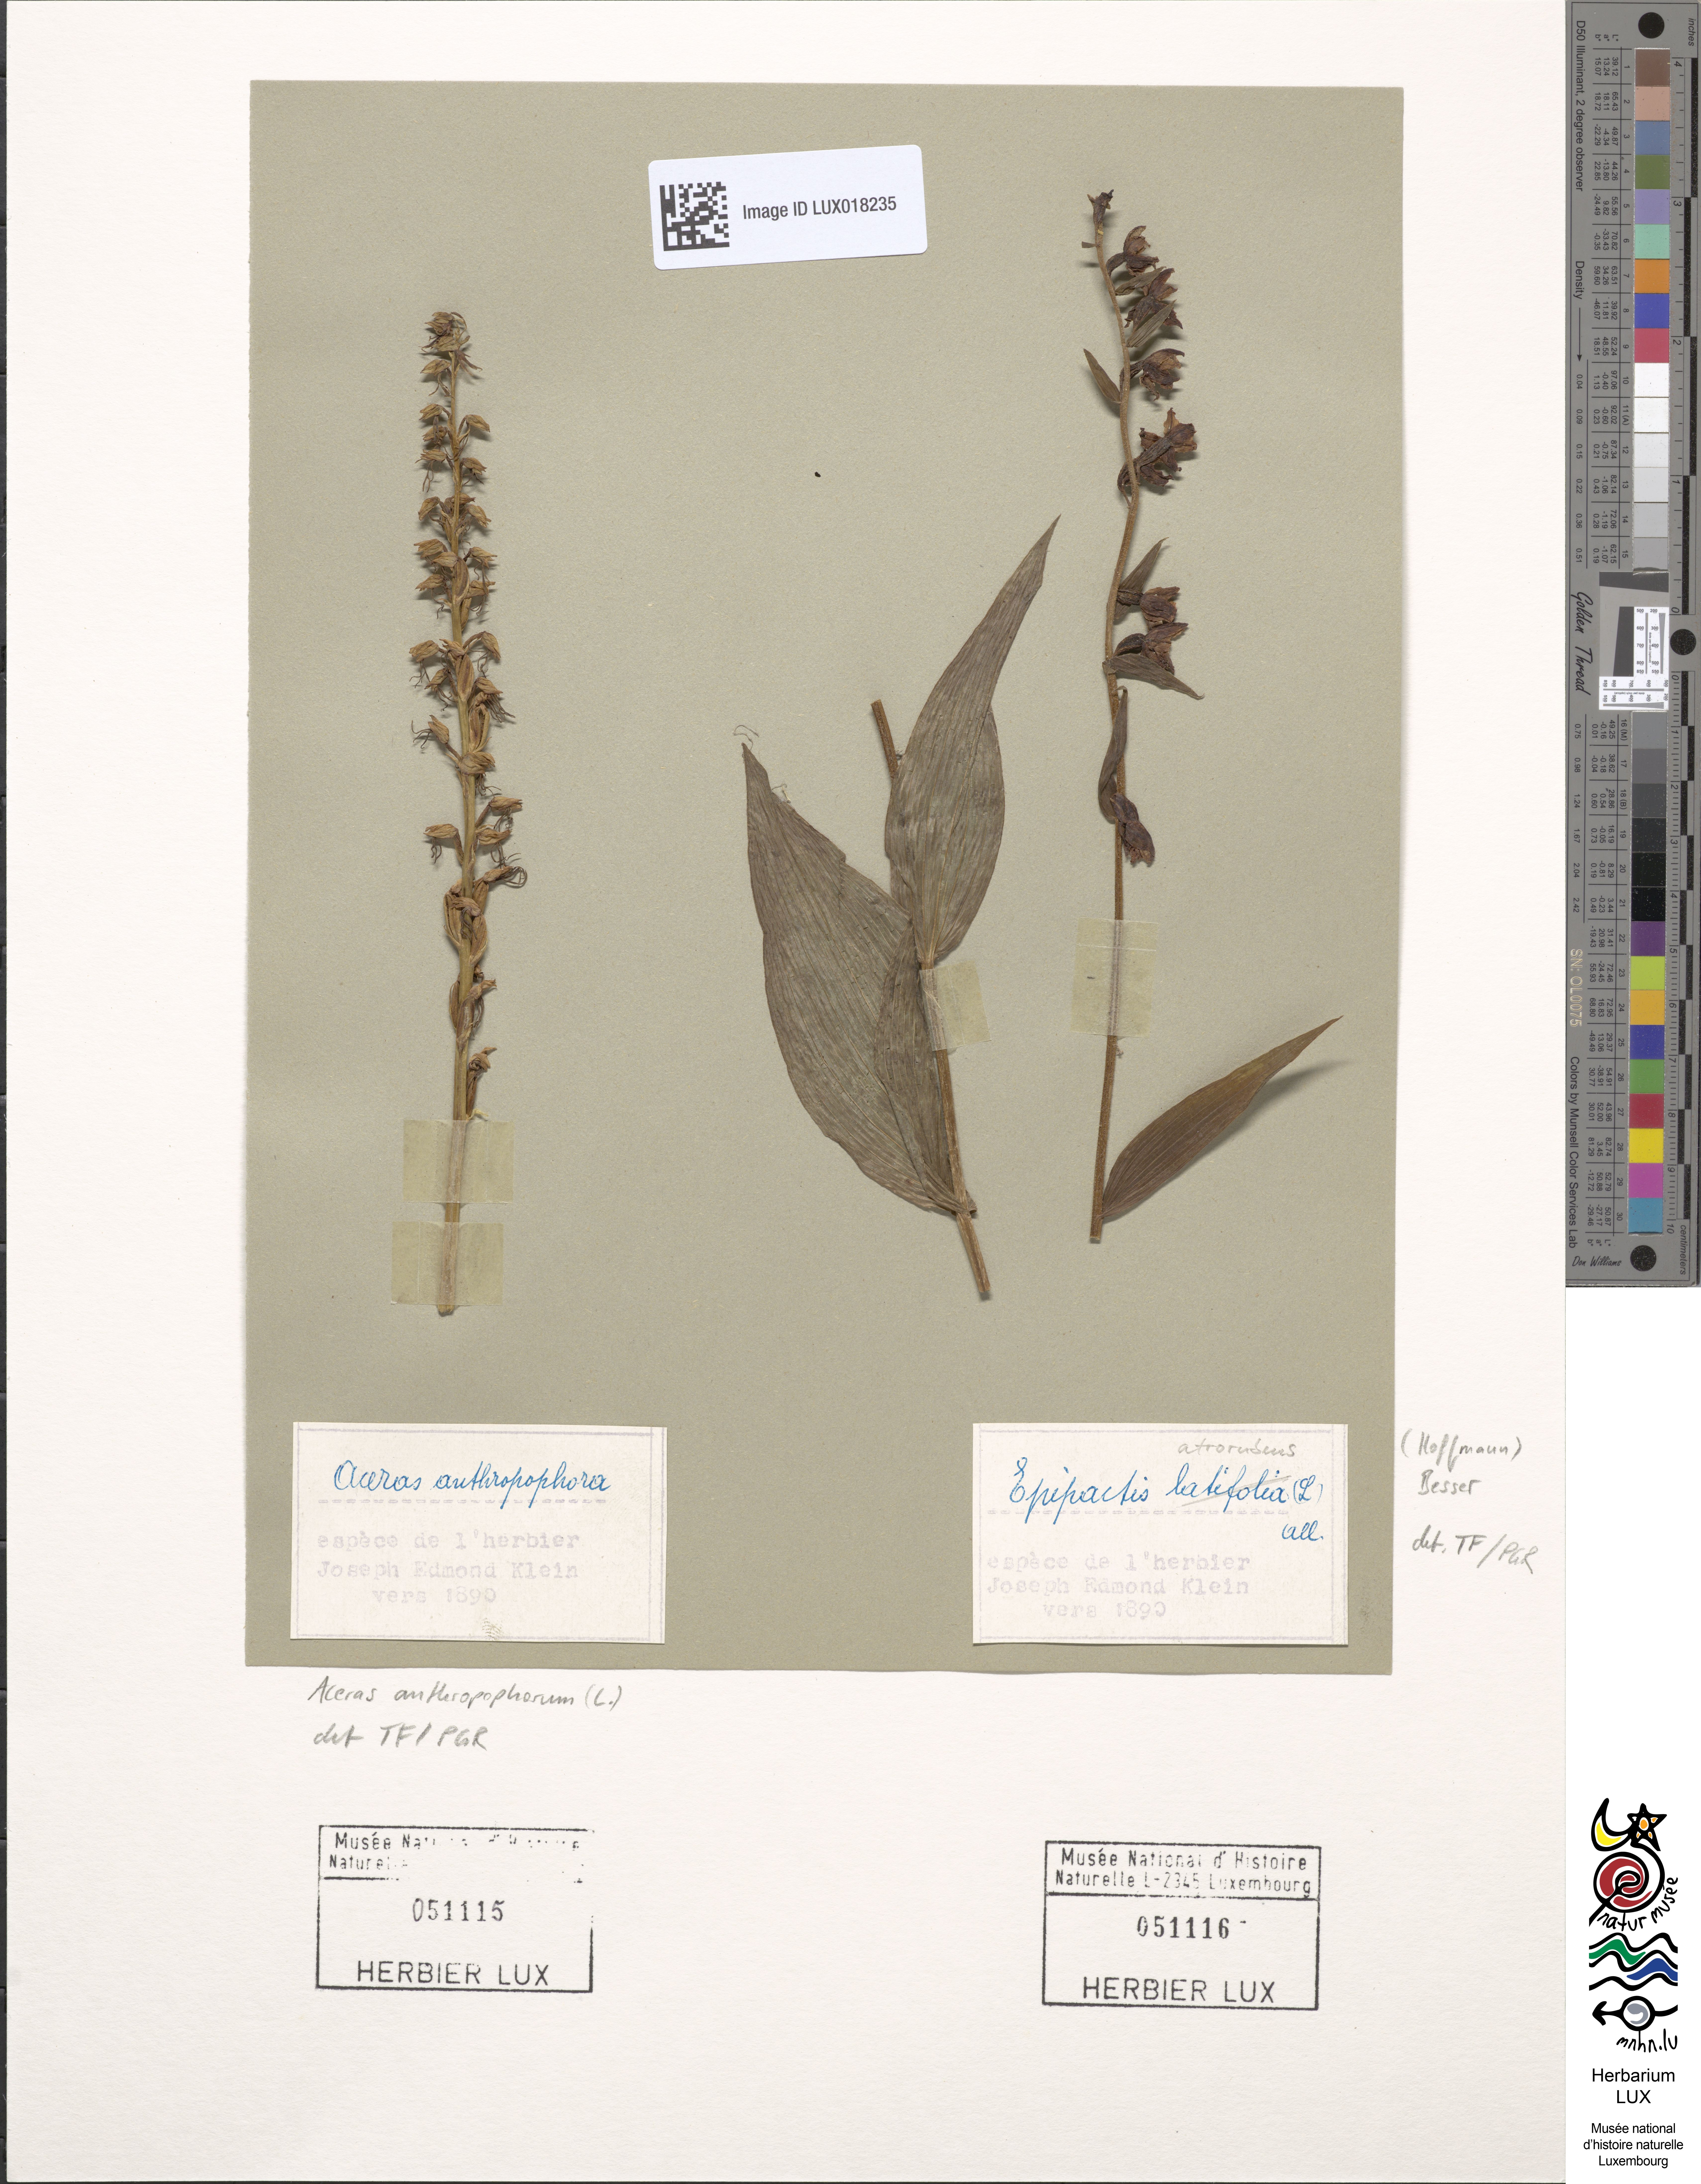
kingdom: Plantae
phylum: Tracheophyta
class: Liliopsida
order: Asparagales
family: Orchidaceae
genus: Epipactis
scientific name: Epipactis atrorubens
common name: Dark-red helleborine
